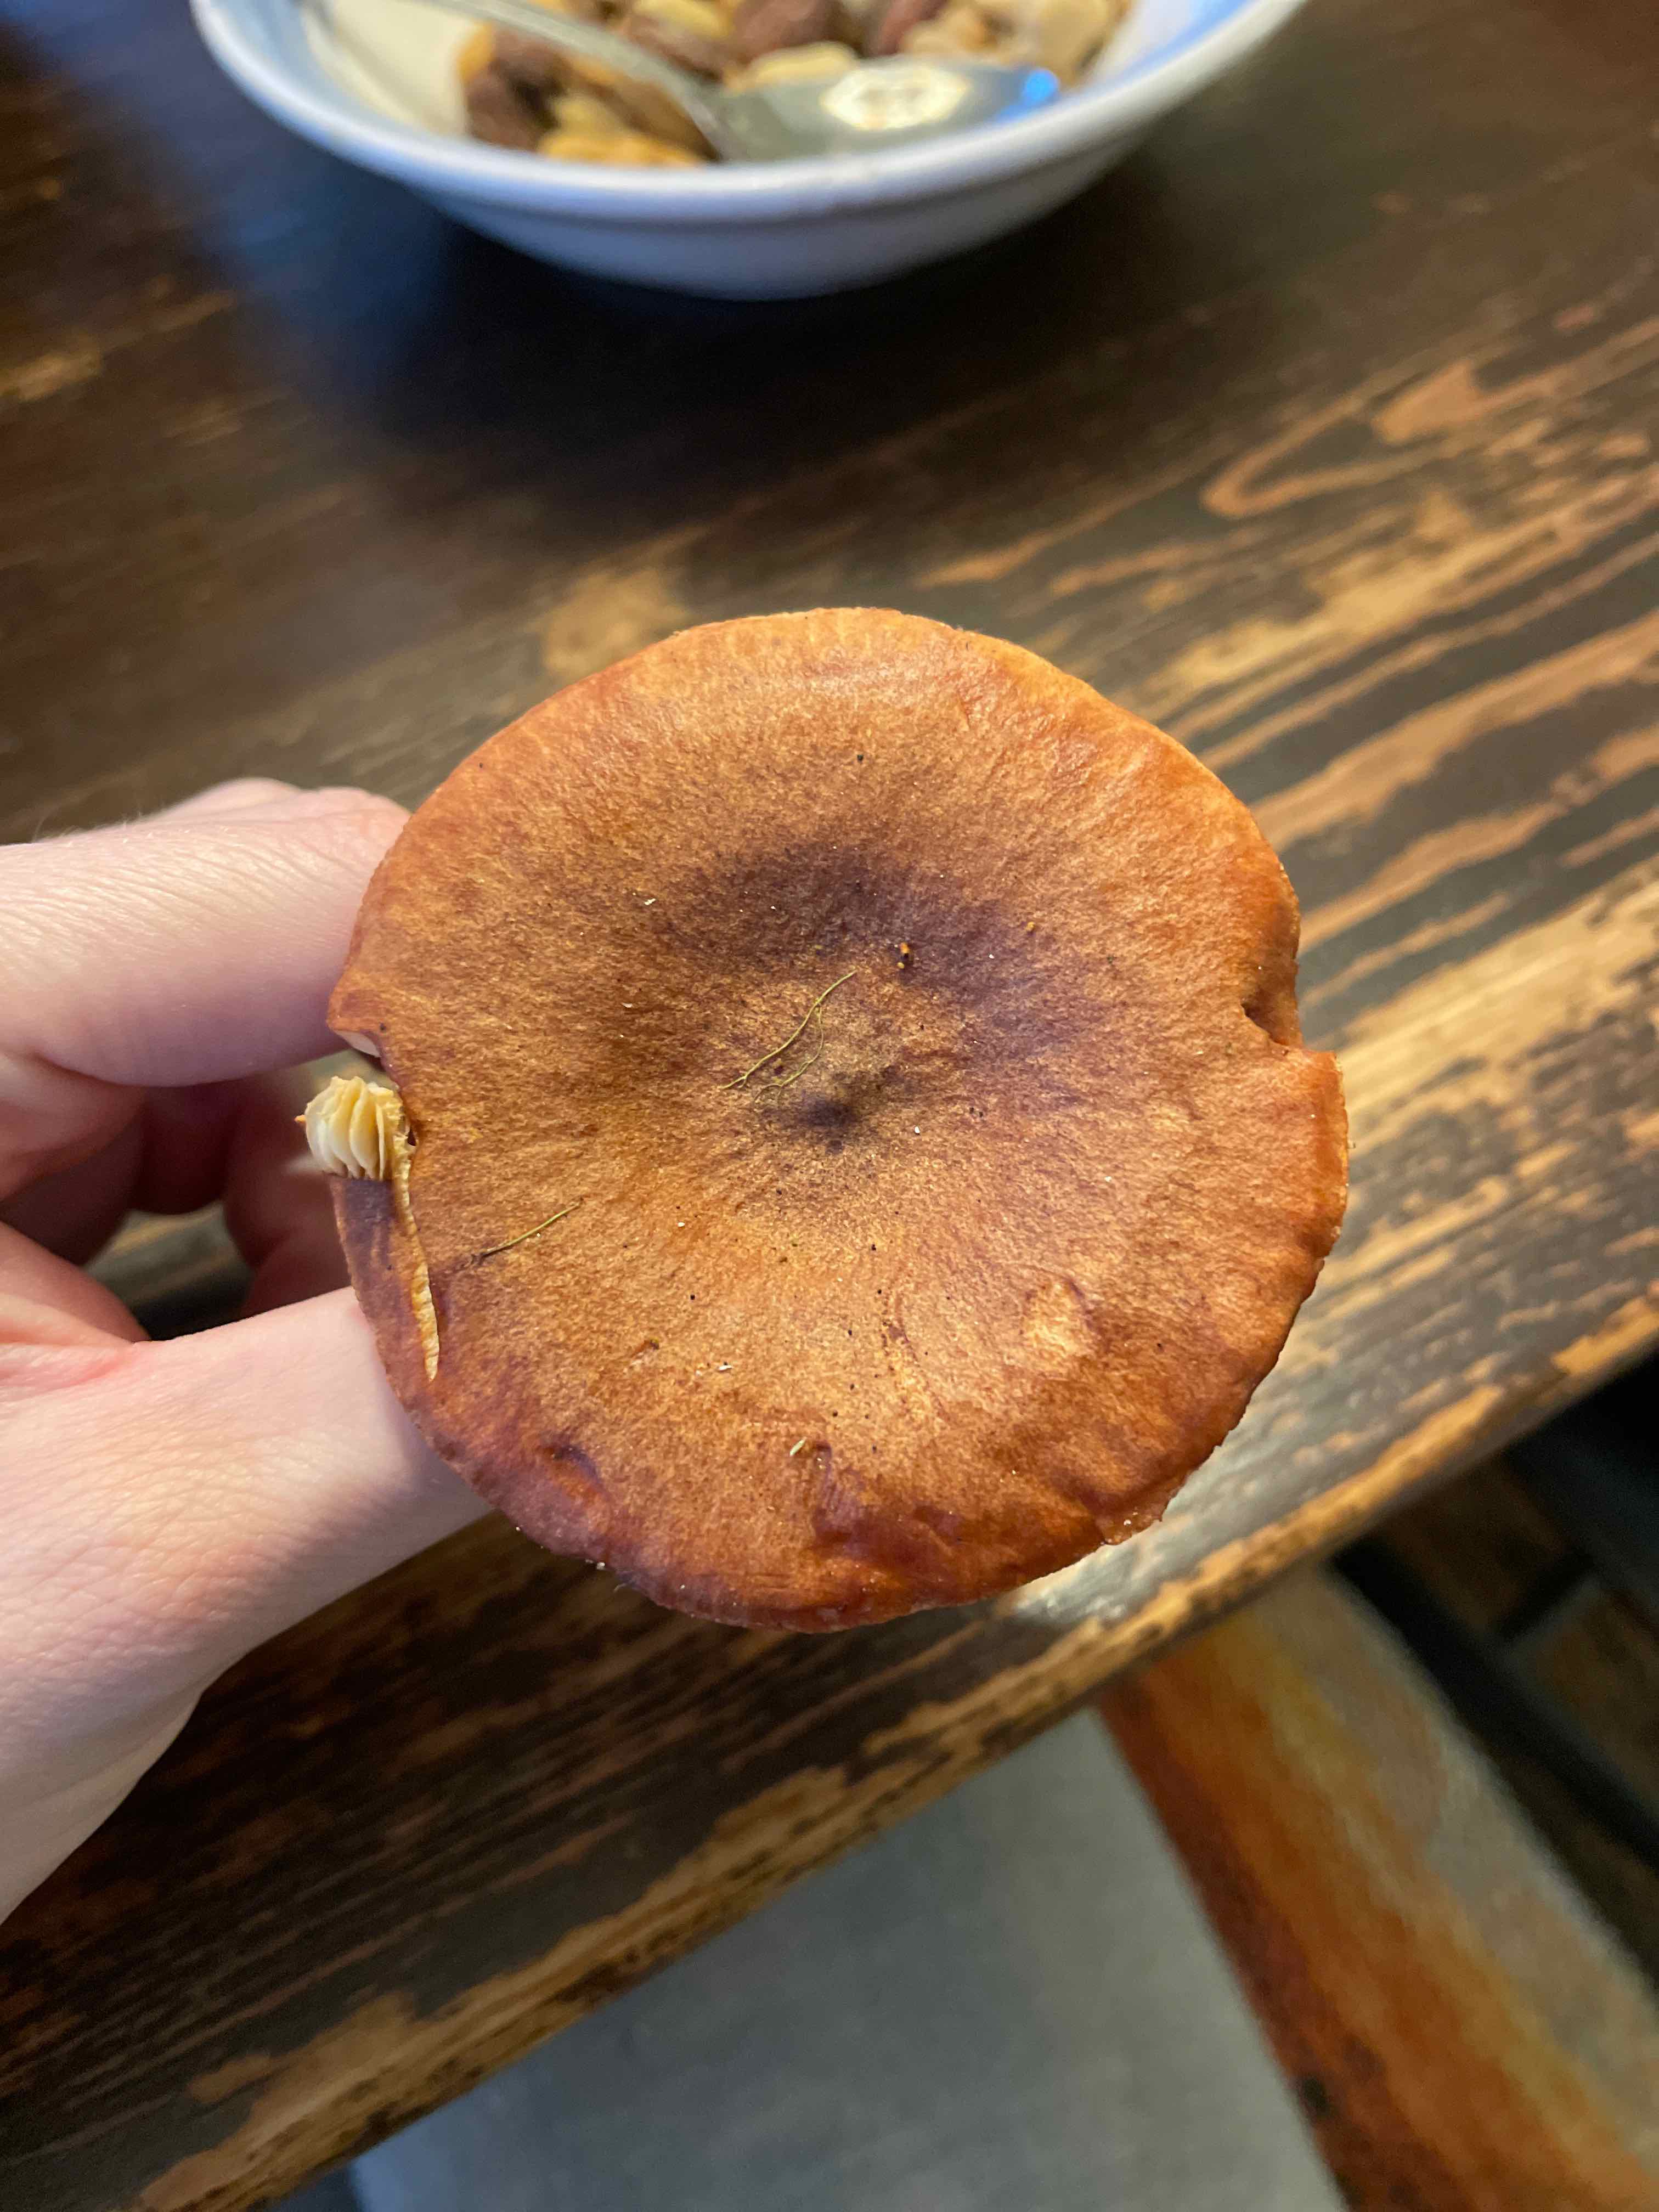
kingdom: Fungi
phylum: Basidiomycota
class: Agaricomycetes
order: Russulales
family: Russulaceae
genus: Lactarius
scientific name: Lactarius rufus
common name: rødbrun mælkehat
